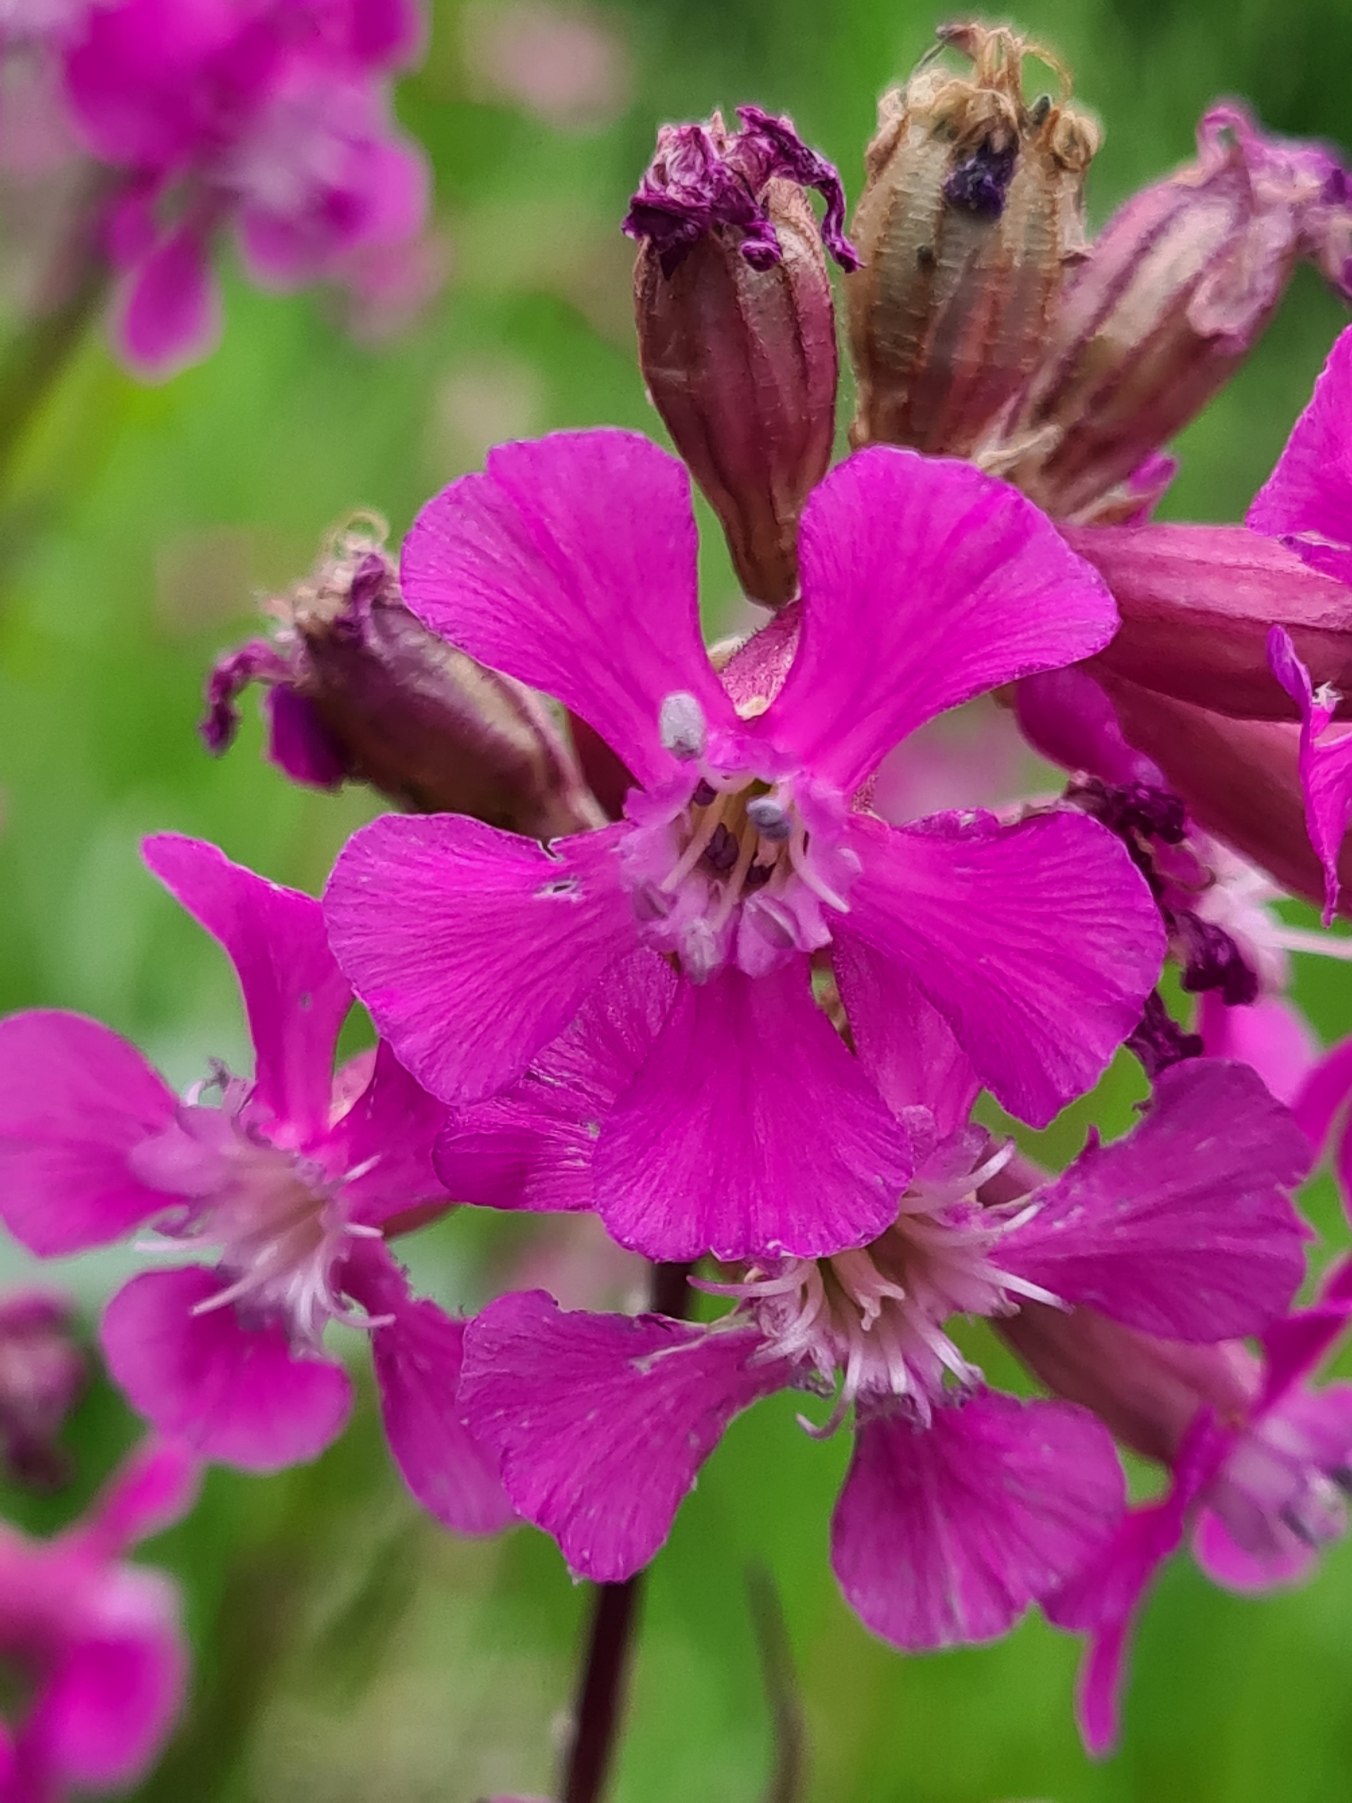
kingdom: Plantae
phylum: Tracheophyta
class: Magnoliopsida
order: Caryophyllales
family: Caryophyllaceae
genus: Viscaria
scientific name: Viscaria vulgaris
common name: Tjærenellike
